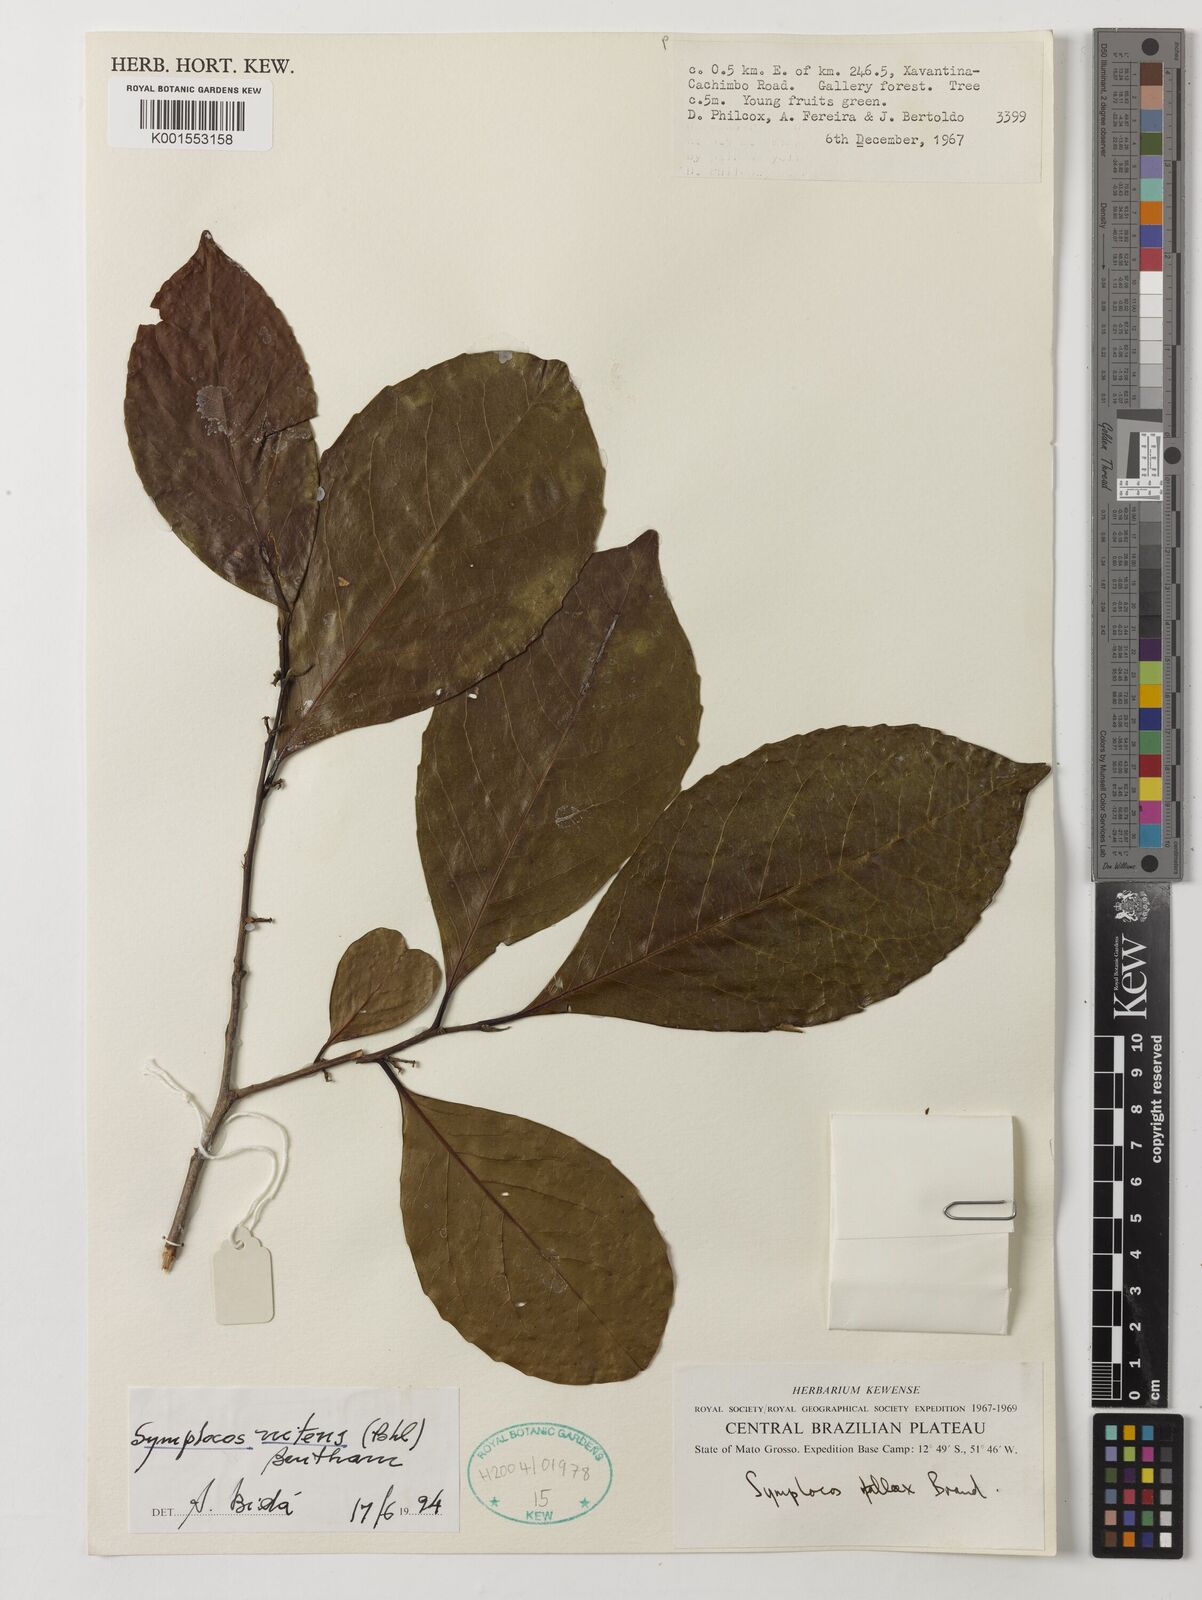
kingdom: Plantae
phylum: Tracheophyta
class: Magnoliopsida
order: Ericales
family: Symplocaceae
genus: Symplocos
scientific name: Symplocos nitens
